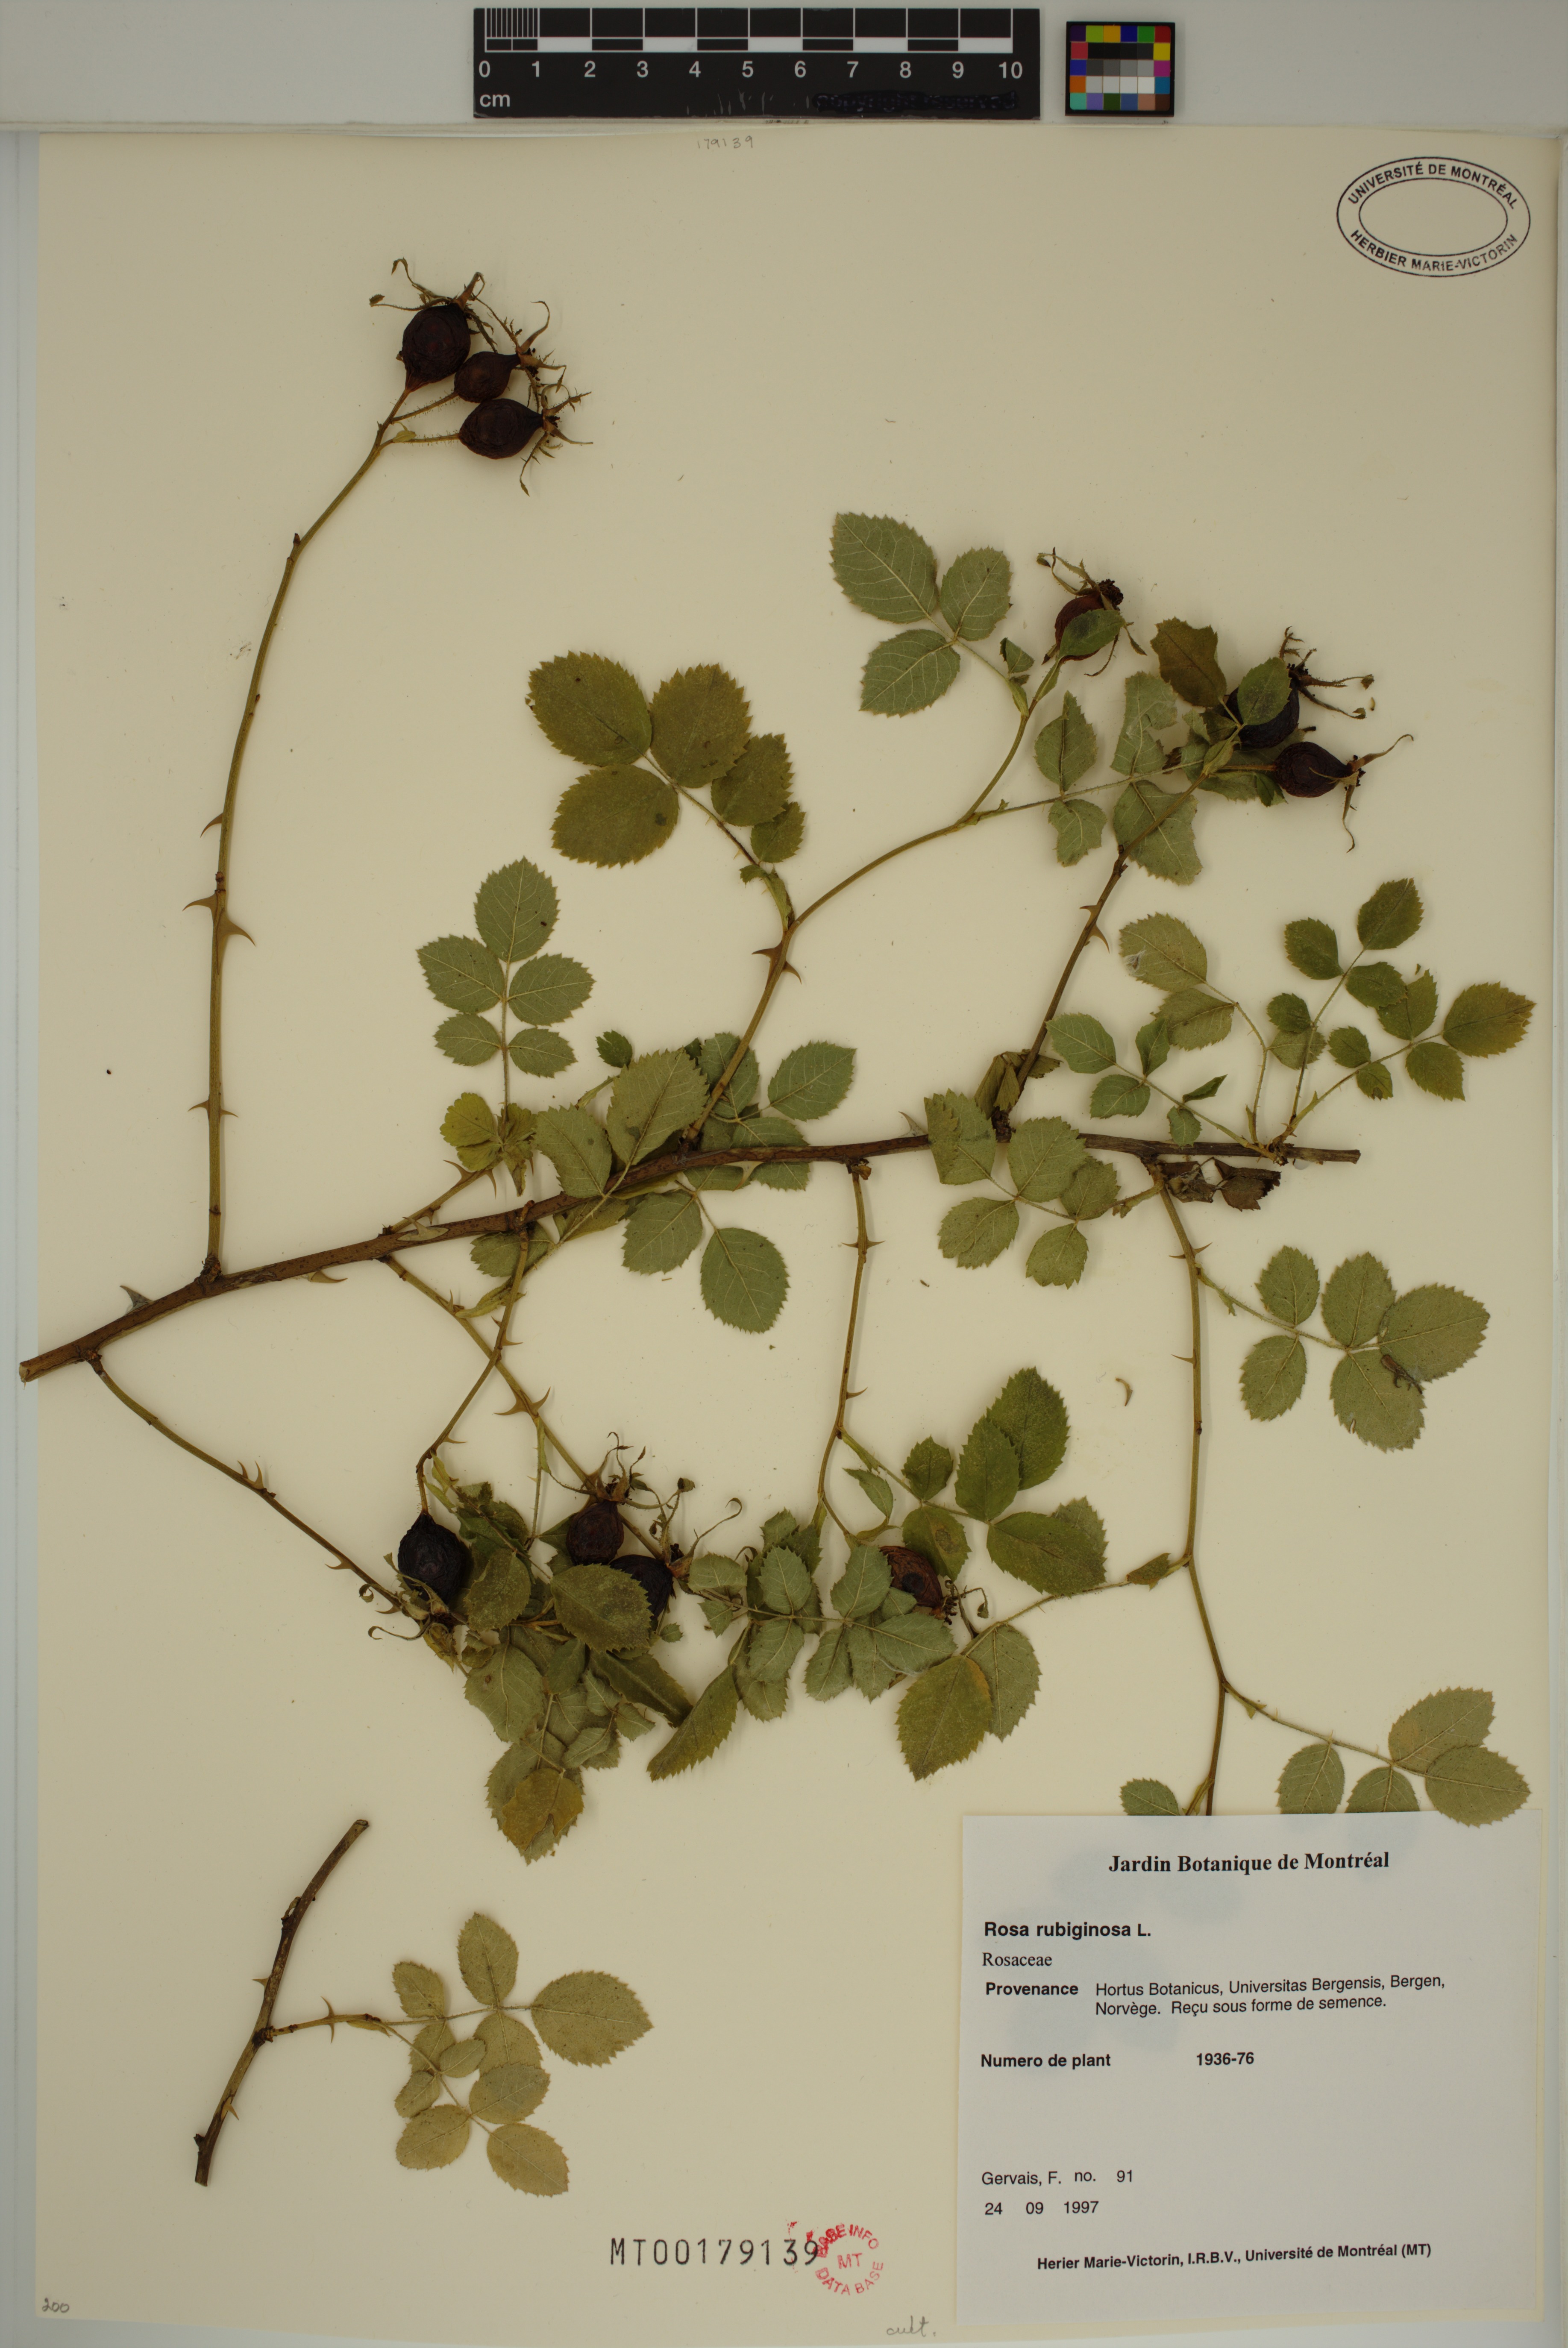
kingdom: Plantae
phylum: Tracheophyta
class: Magnoliopsida
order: Rosales
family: Rosaceae
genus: Rosa
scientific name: Rosa rubiginosa
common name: Sweet-briar
